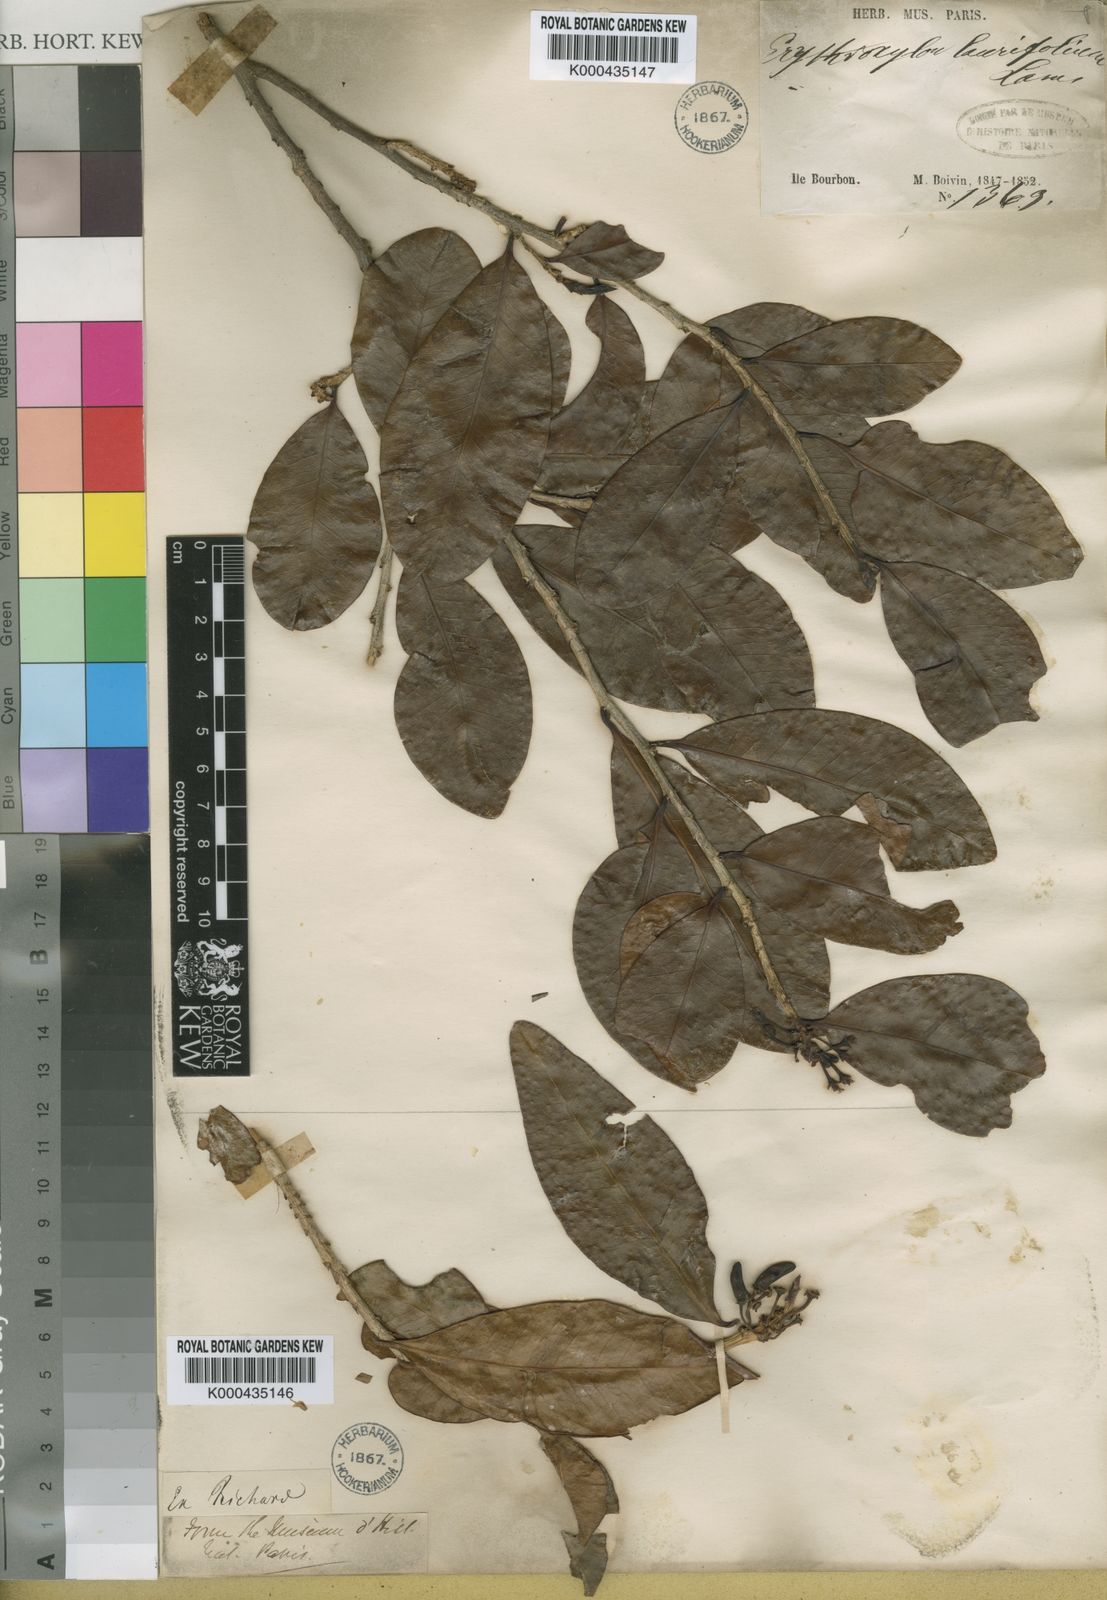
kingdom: Plantae
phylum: Tracheophyta
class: Magnoliopsida
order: Malpighiales
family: Erythroxylaceae
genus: Erythroxylum
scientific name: Erythroxylum sideroxyloides
